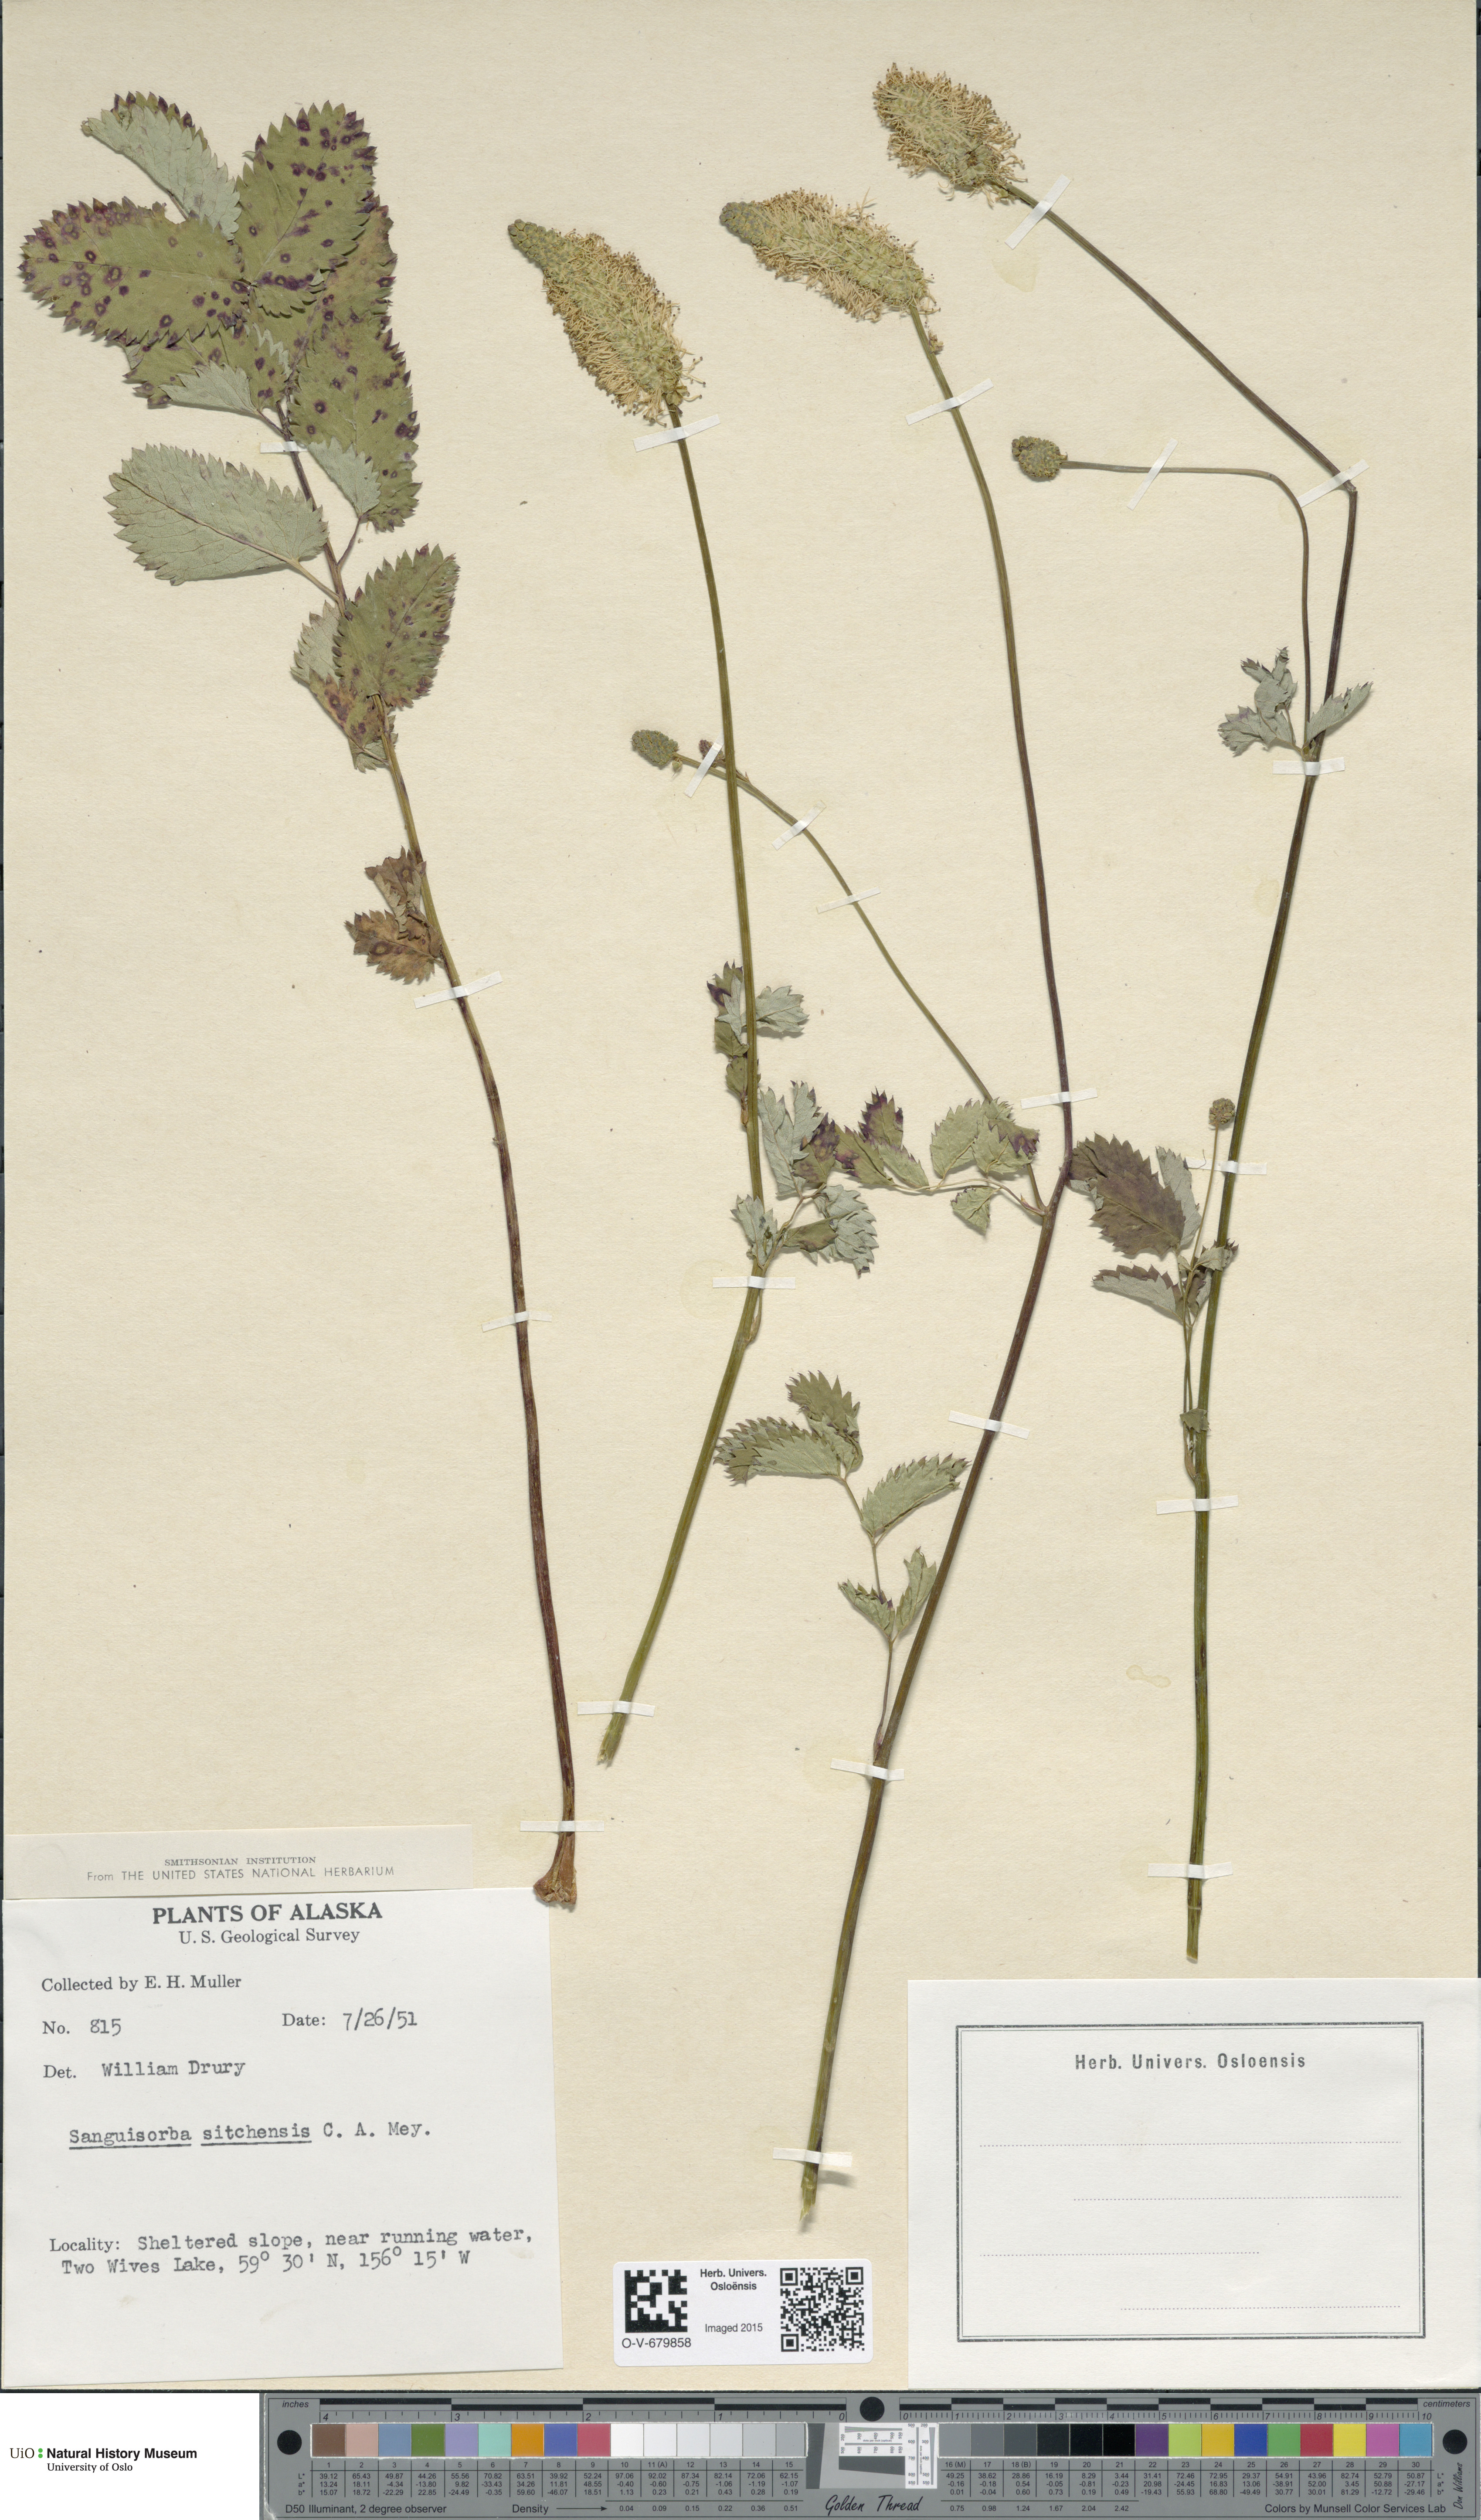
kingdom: Plantae
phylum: Tracheophyta
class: Magnoliopsida
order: Rosales
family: Rosaceae
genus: Sanguisorba
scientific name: Sanguisorba stipulata
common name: Sitka burnet
